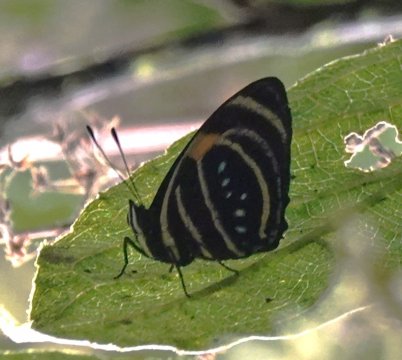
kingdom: Animalia
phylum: Arthropoda
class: Insecta
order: Lepidoptera
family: Nymphalidae
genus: Catagramma
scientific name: Catagramma Callicore lyca
